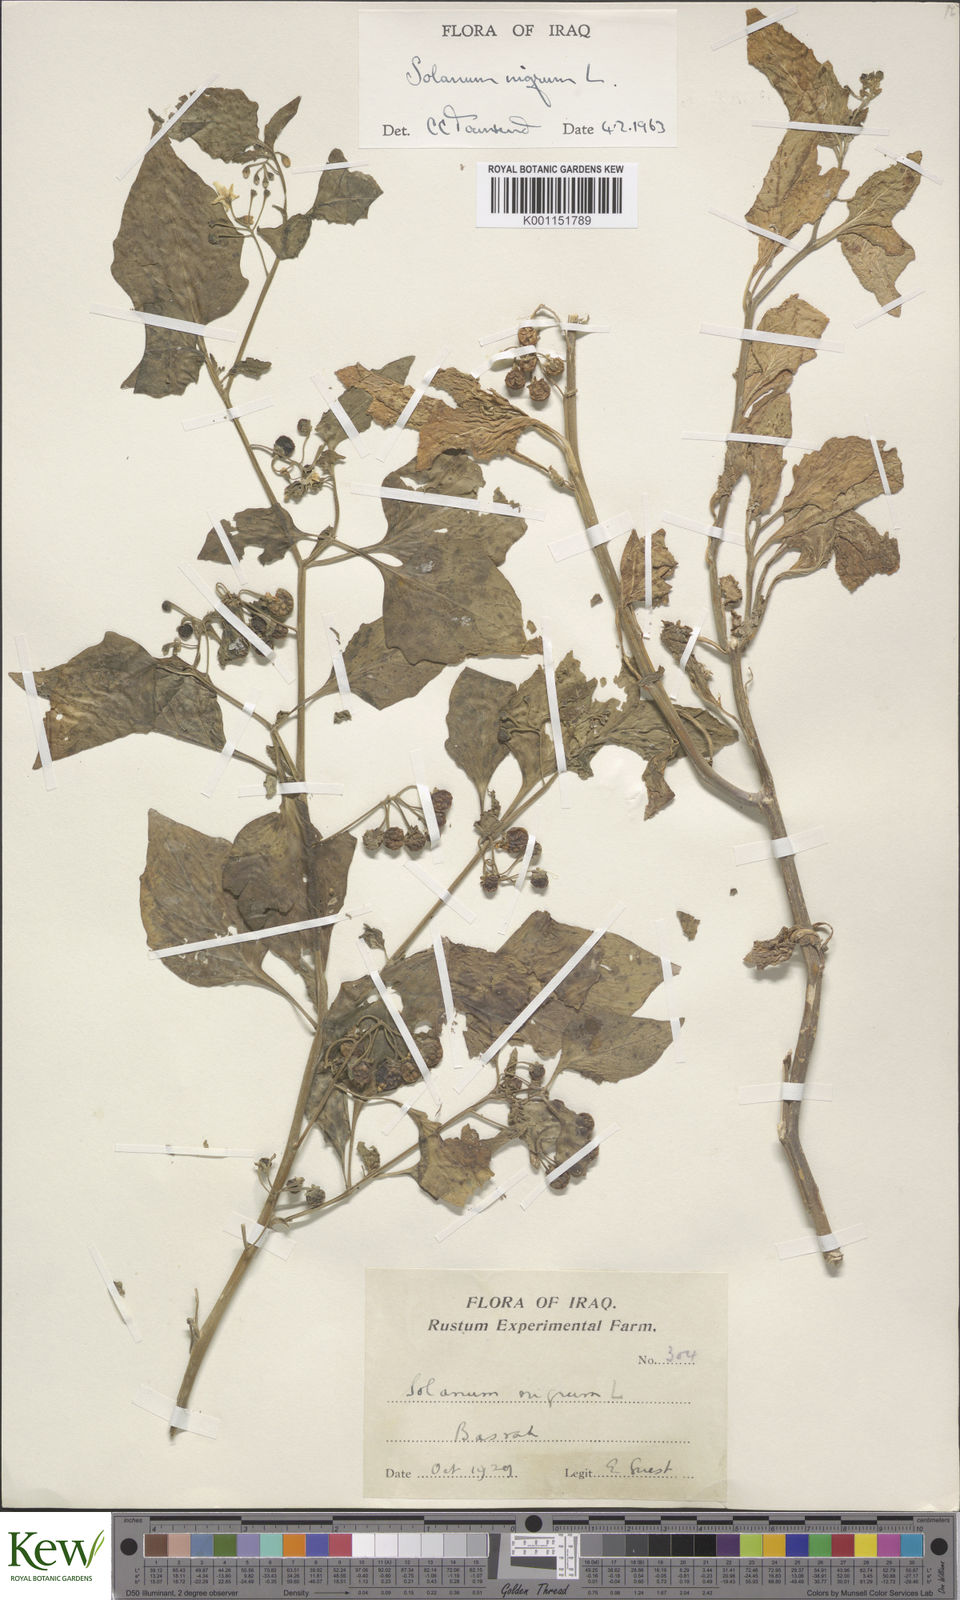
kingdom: Plantae
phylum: Tracheophyta
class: Magnoliopsida
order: Solanales
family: Solanaceae
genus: Solanum
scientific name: Solanum nigrum
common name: Black nightshade
